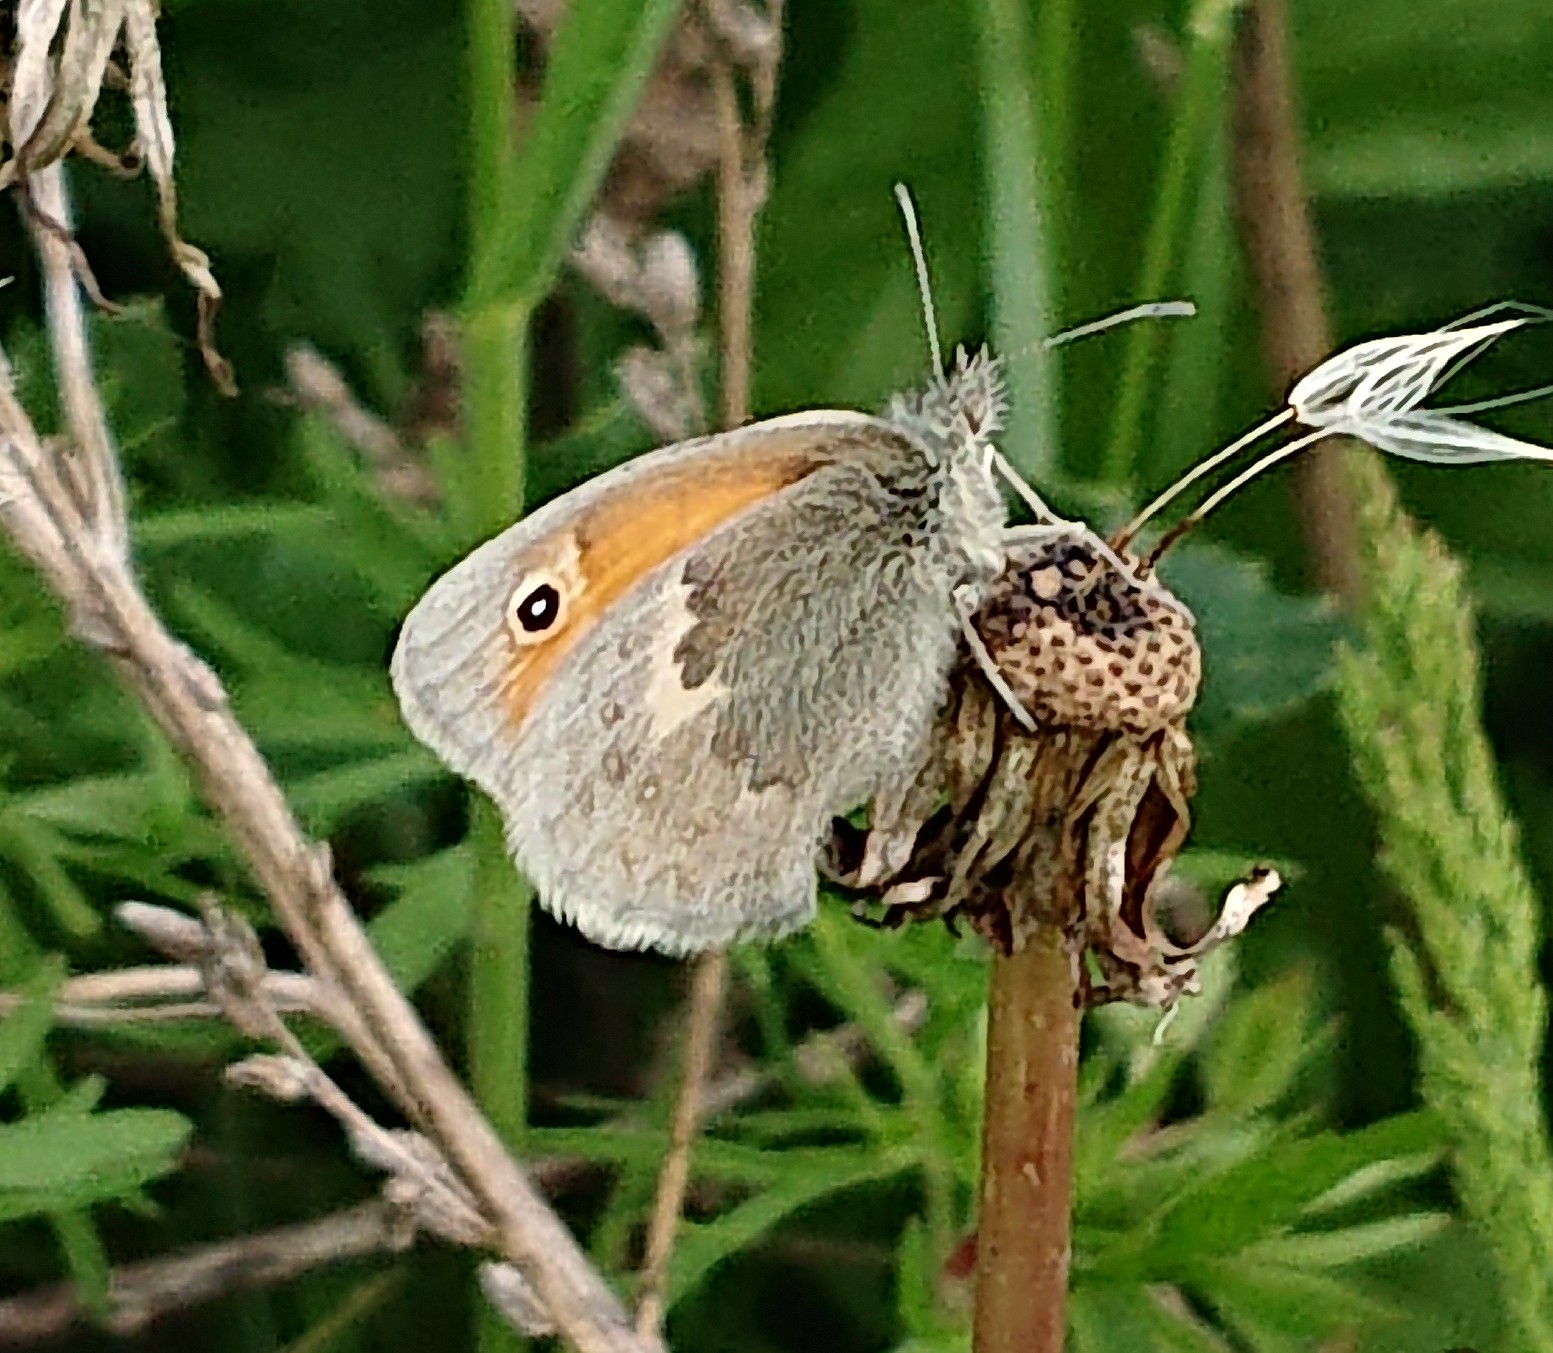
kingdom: Animalia
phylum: Arthropoda
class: Insecta
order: Lepidoptera
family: Nymphalidae
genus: Coenonympha
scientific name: Coenonympha pamphilus
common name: Okkergul randøje
